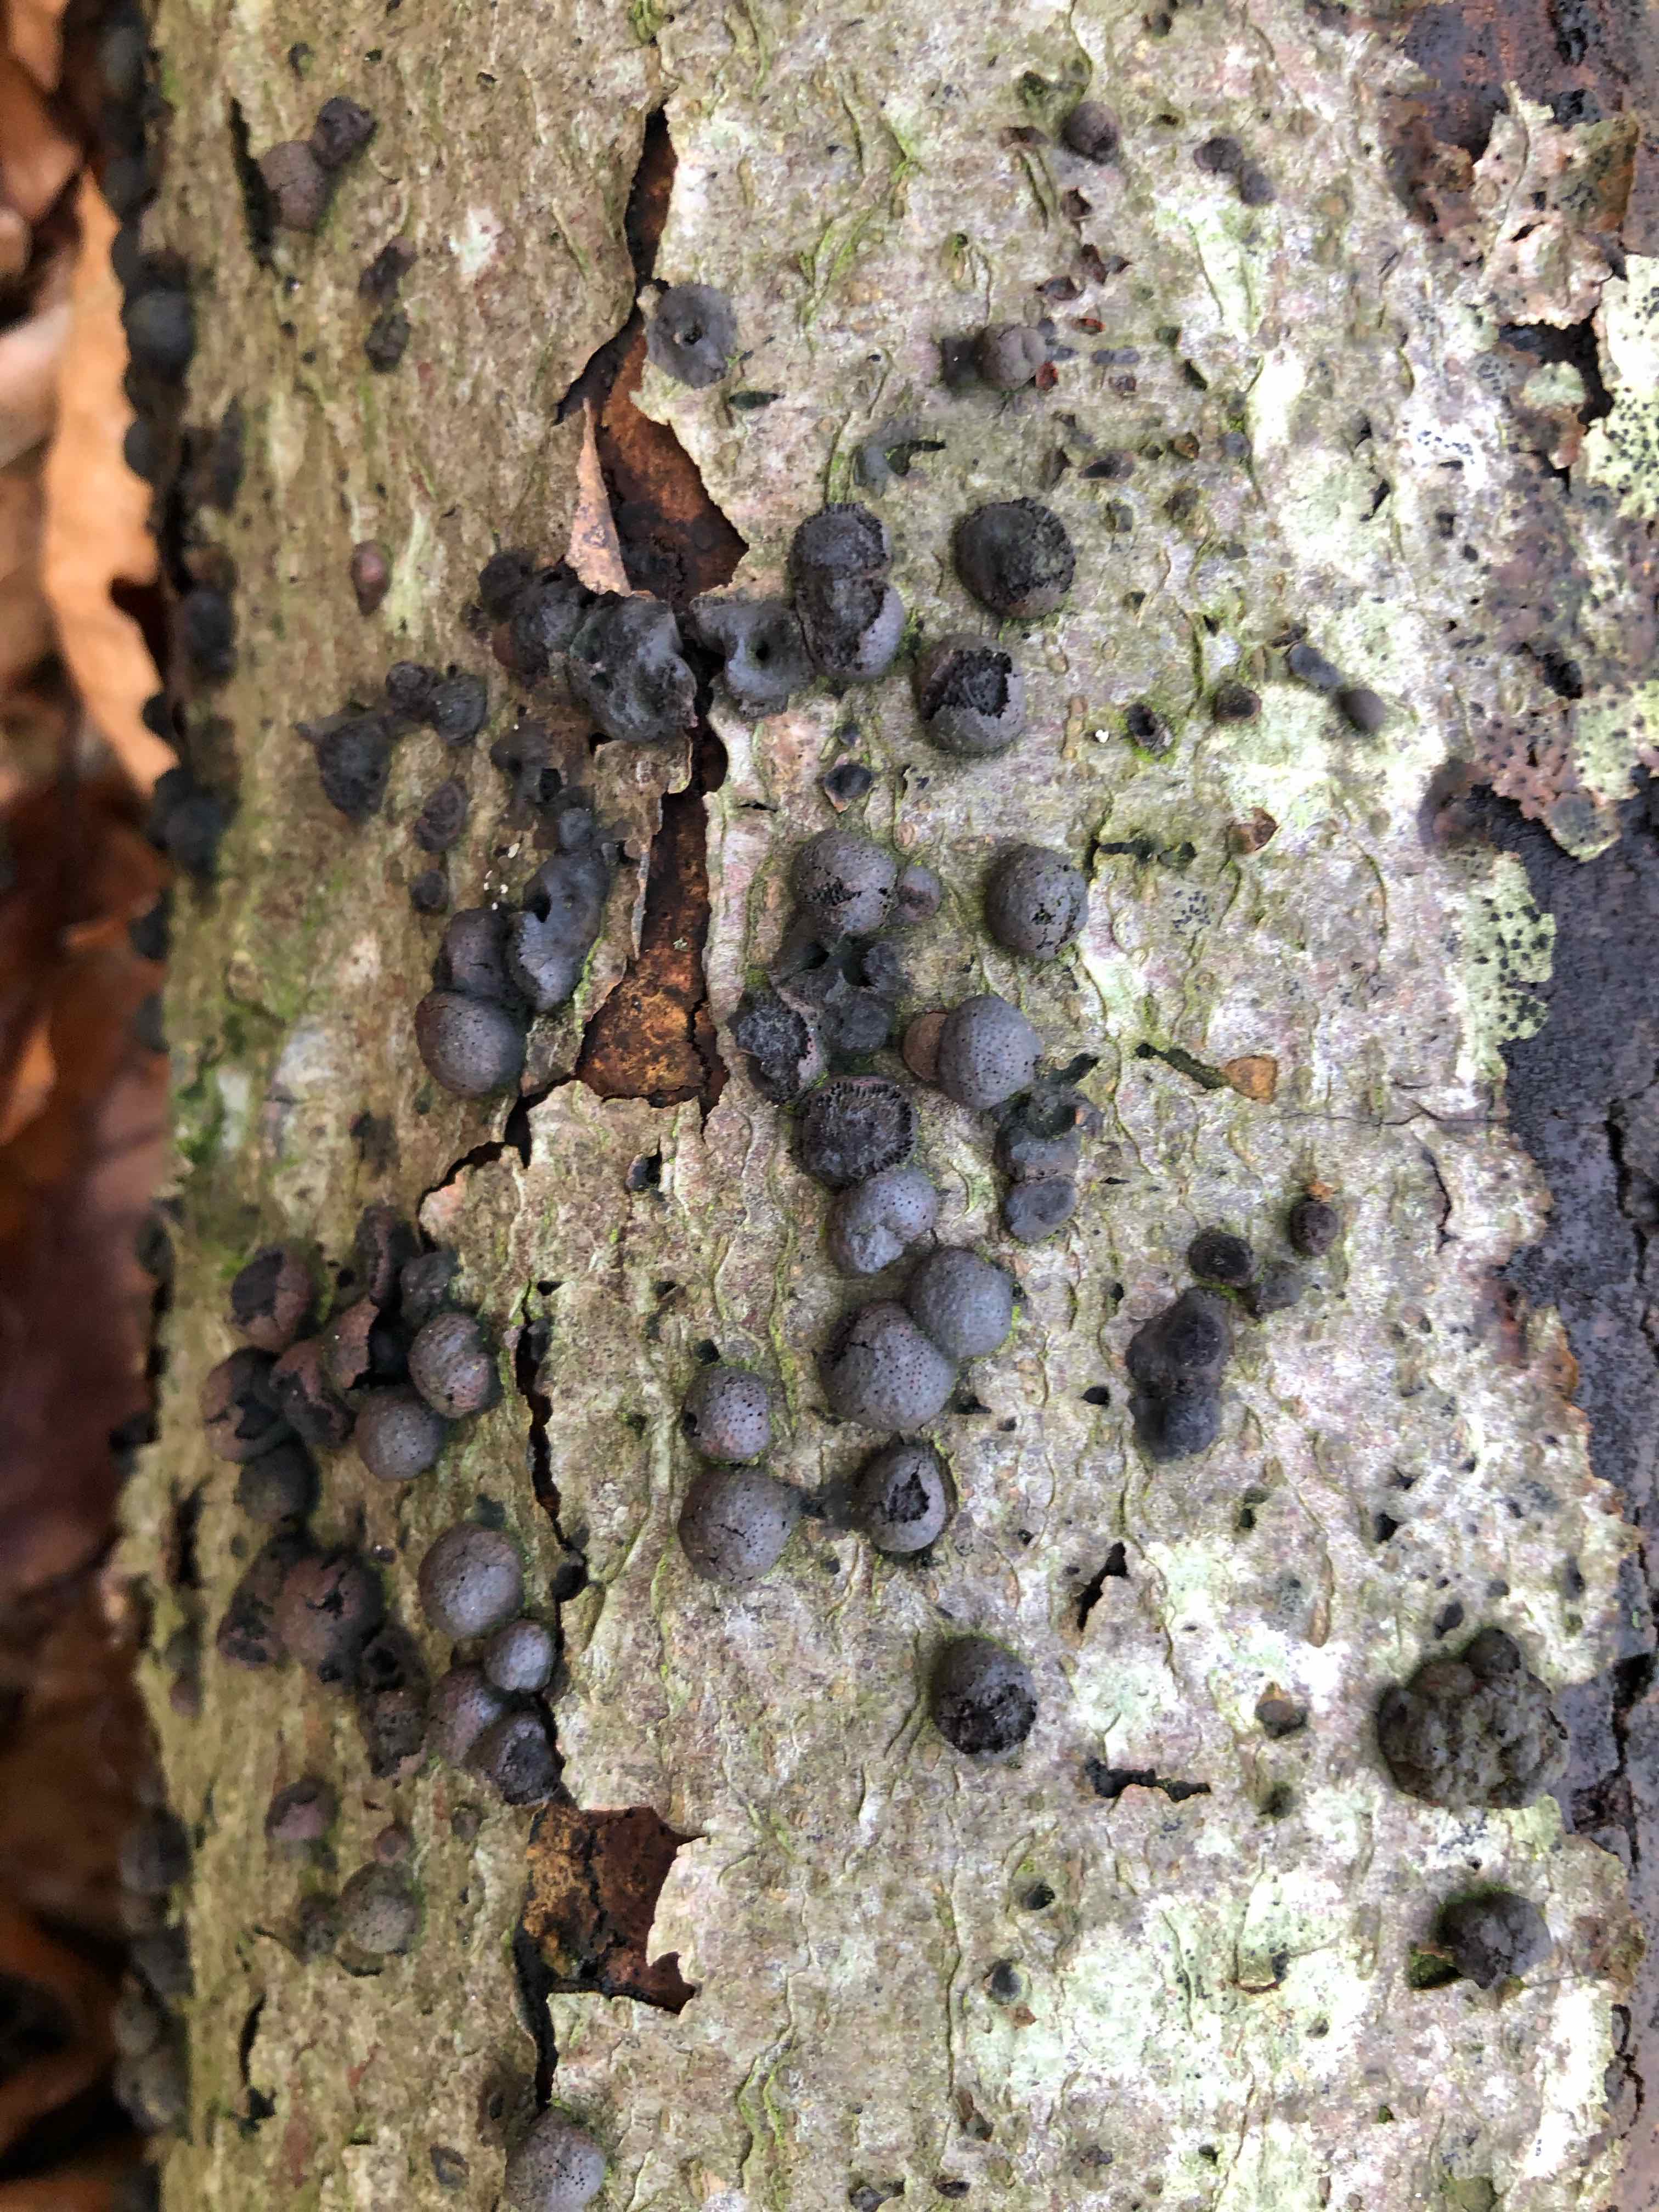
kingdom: Fungi
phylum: Ascomycota
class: Sordariomycetes
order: Xylariales
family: Hypoxylaceae
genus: Hypoxylon
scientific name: Hypoxylon fragiforme
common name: kuljordbær
